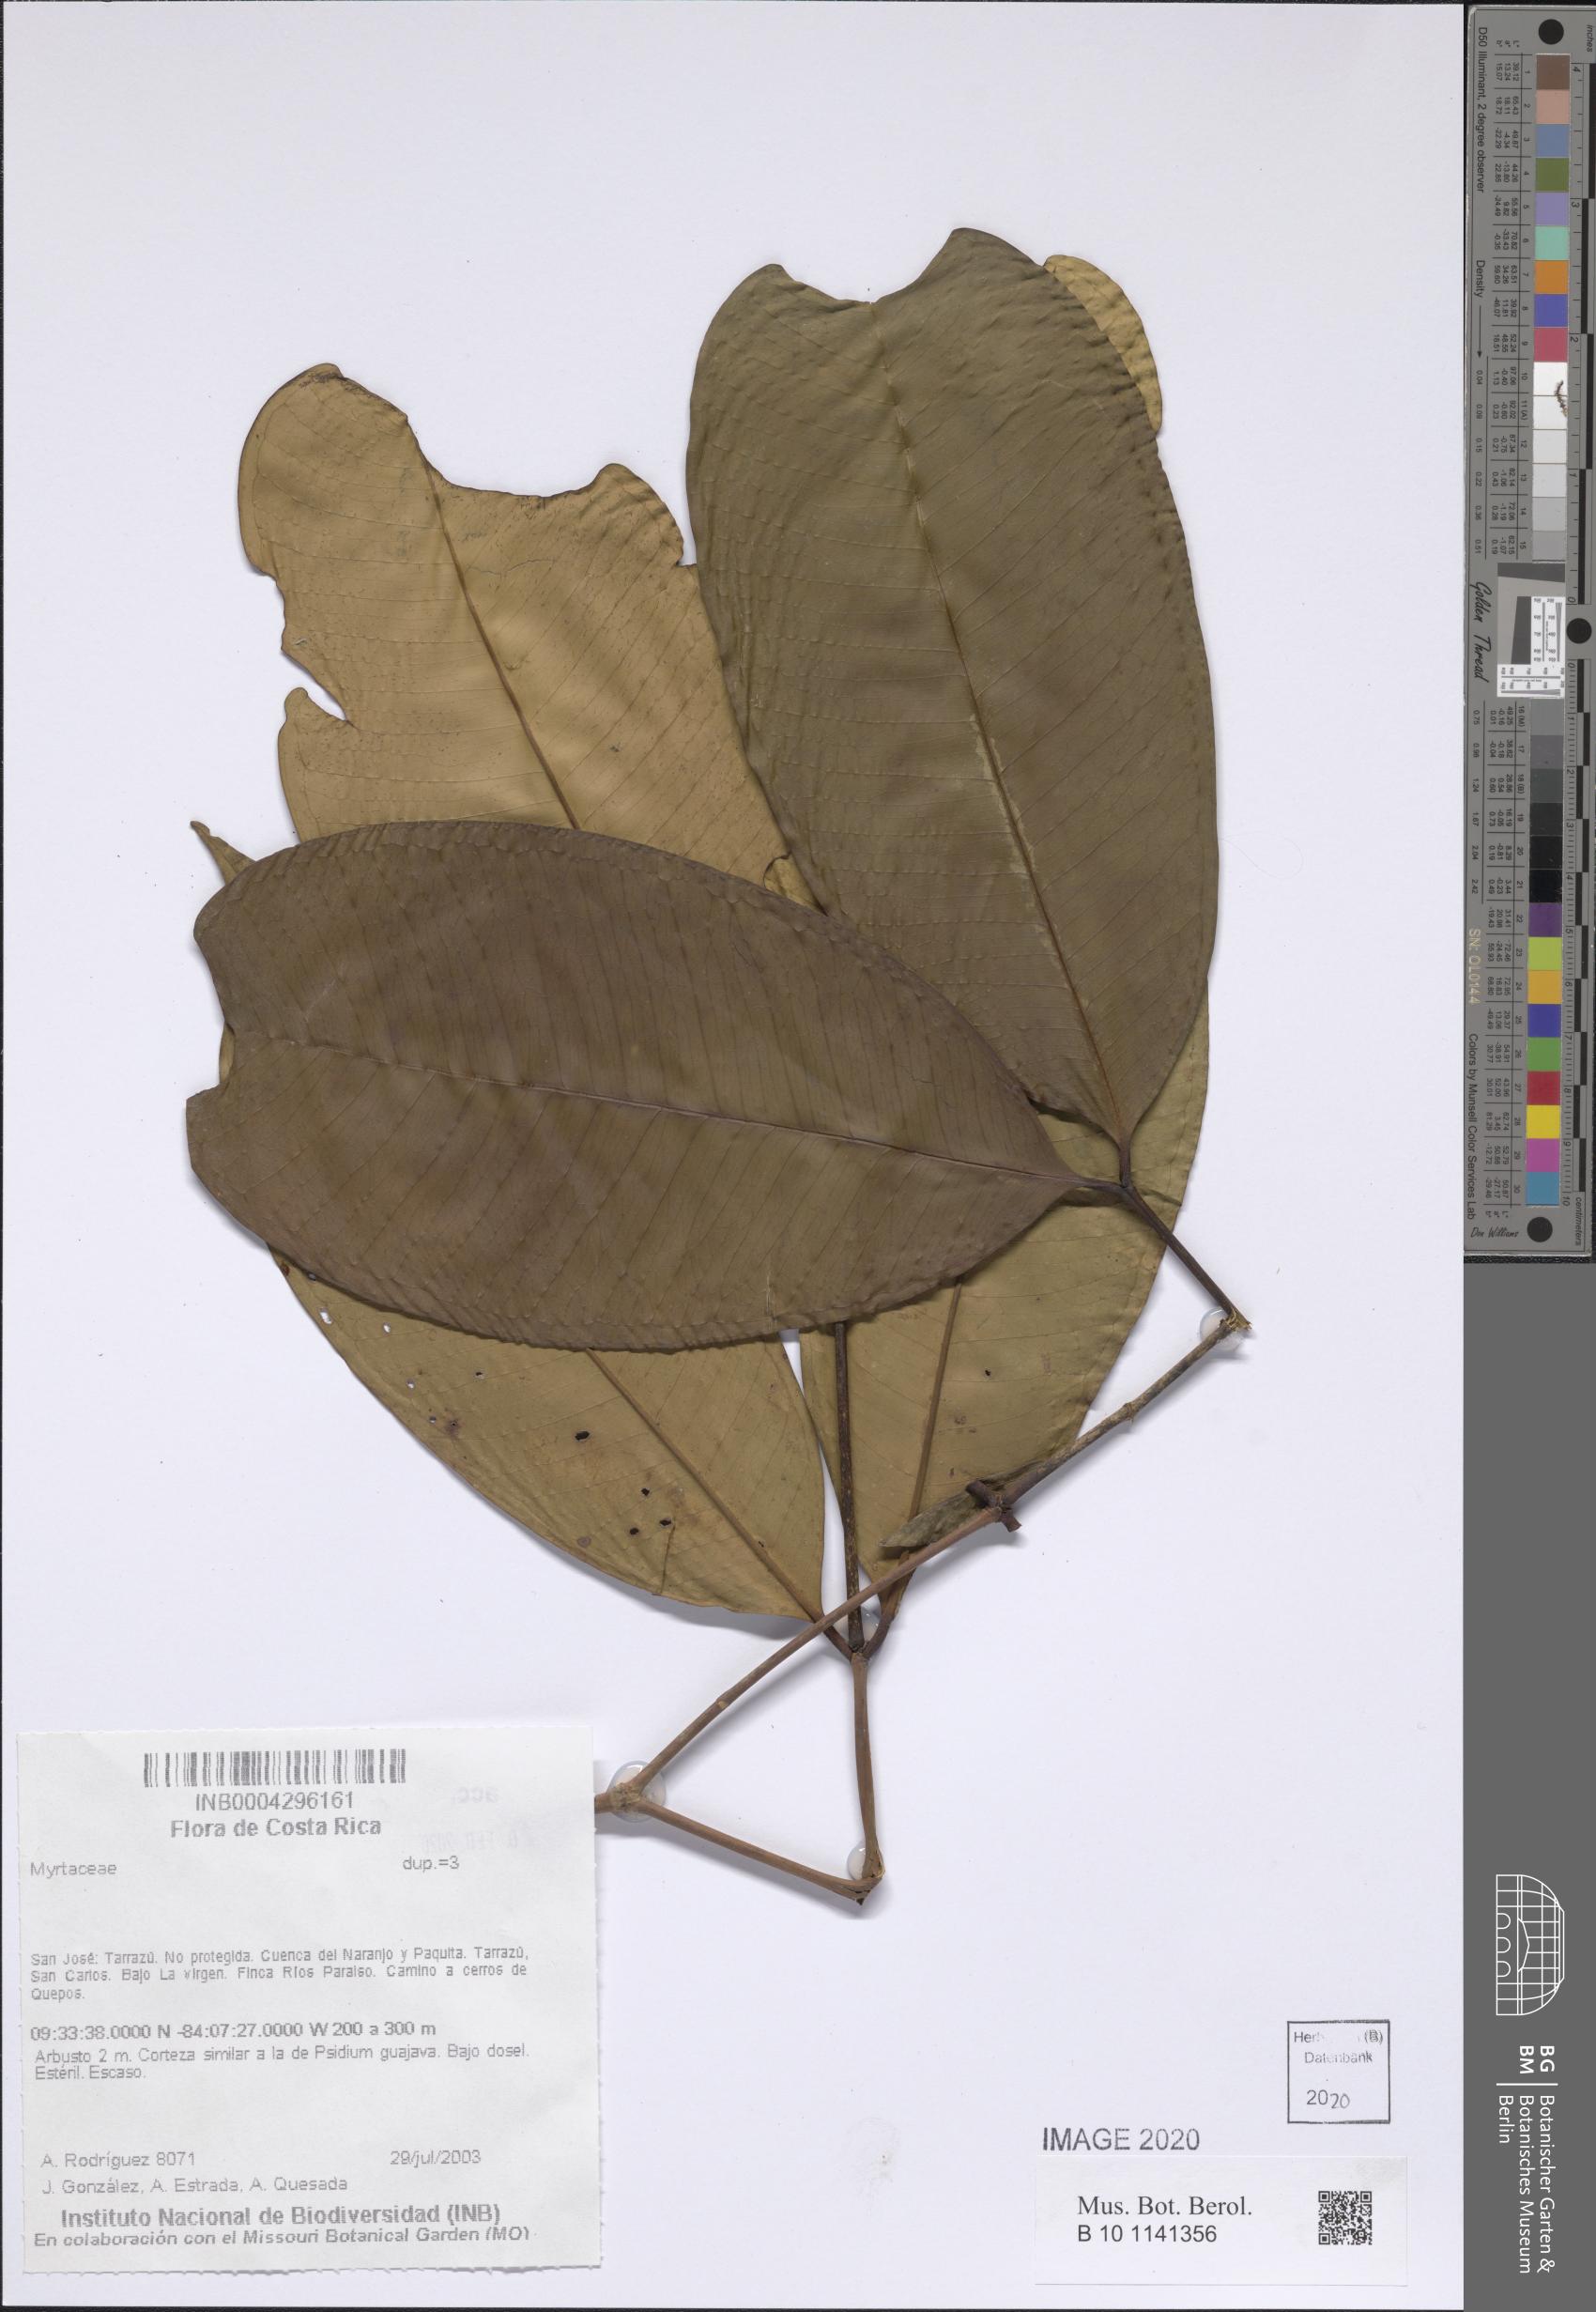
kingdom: Plantae
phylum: Tracheophyta
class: Magnoliopsida
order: Myrtales
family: Myrtaceae
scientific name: Myrtaceae
